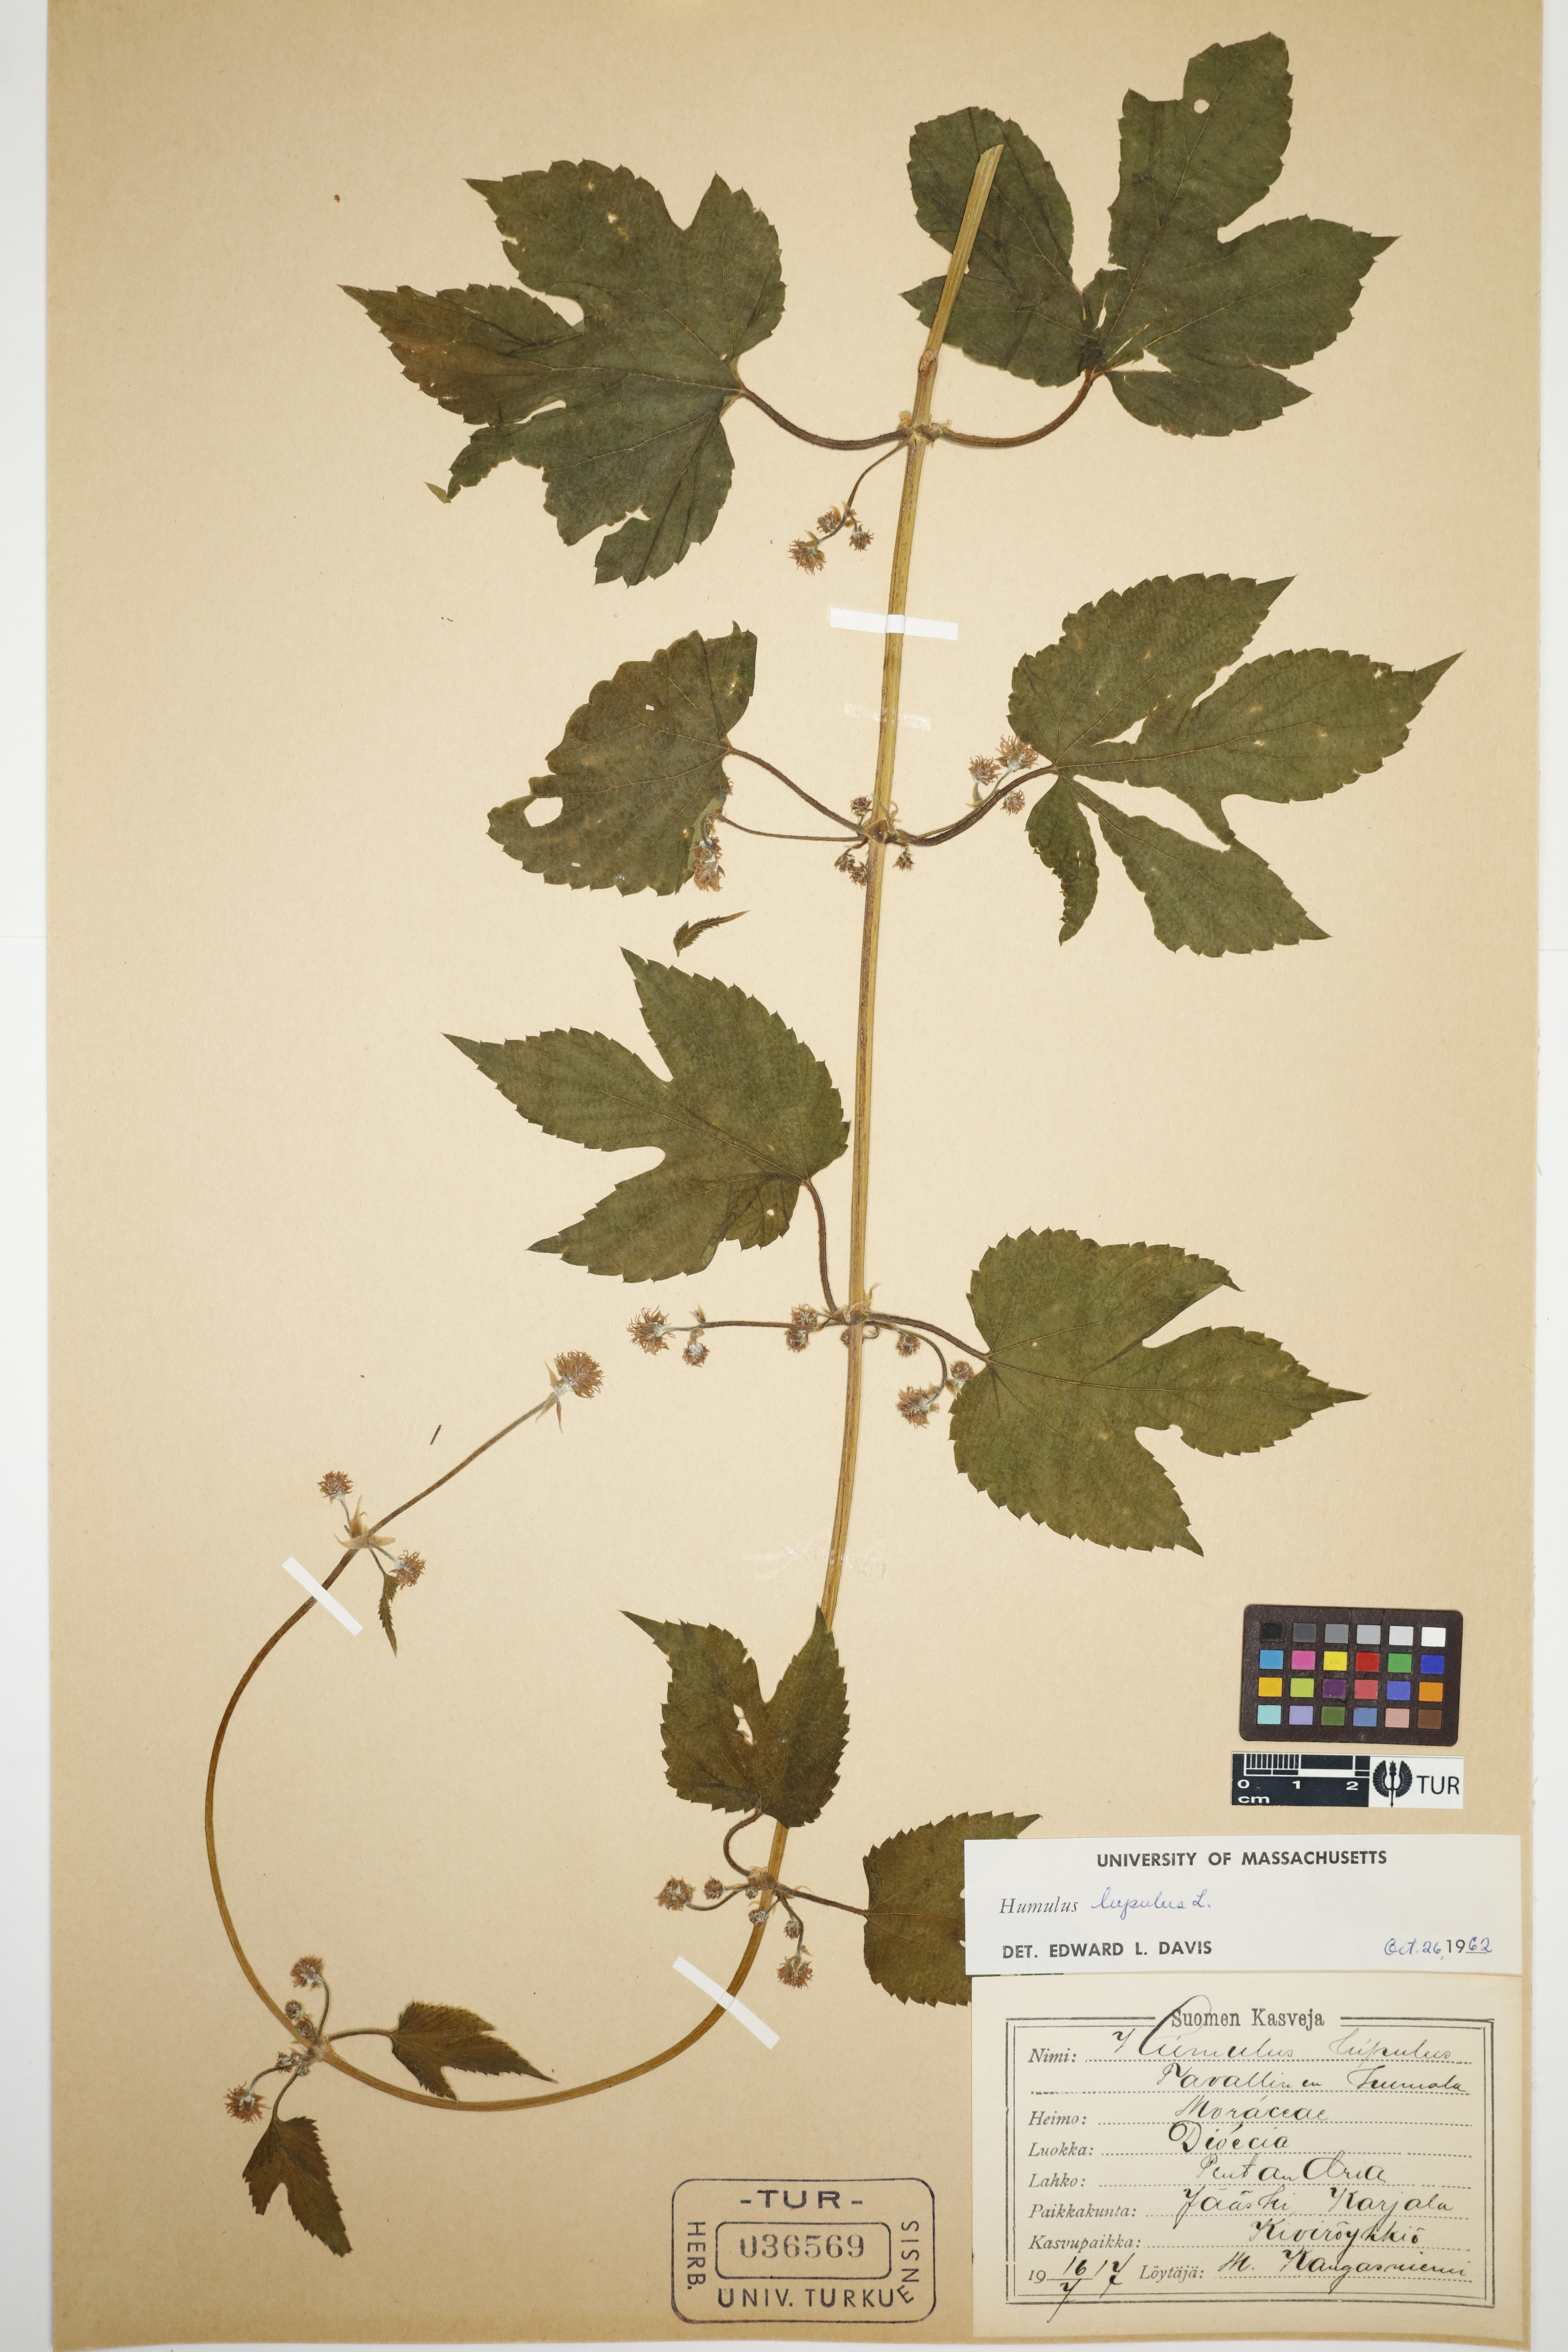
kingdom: Plantae
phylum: Tracheophyta
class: Magnoliopsida
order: Rosales
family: Cannabaceae
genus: Humulus
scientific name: Humulus lupulus
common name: Hop
